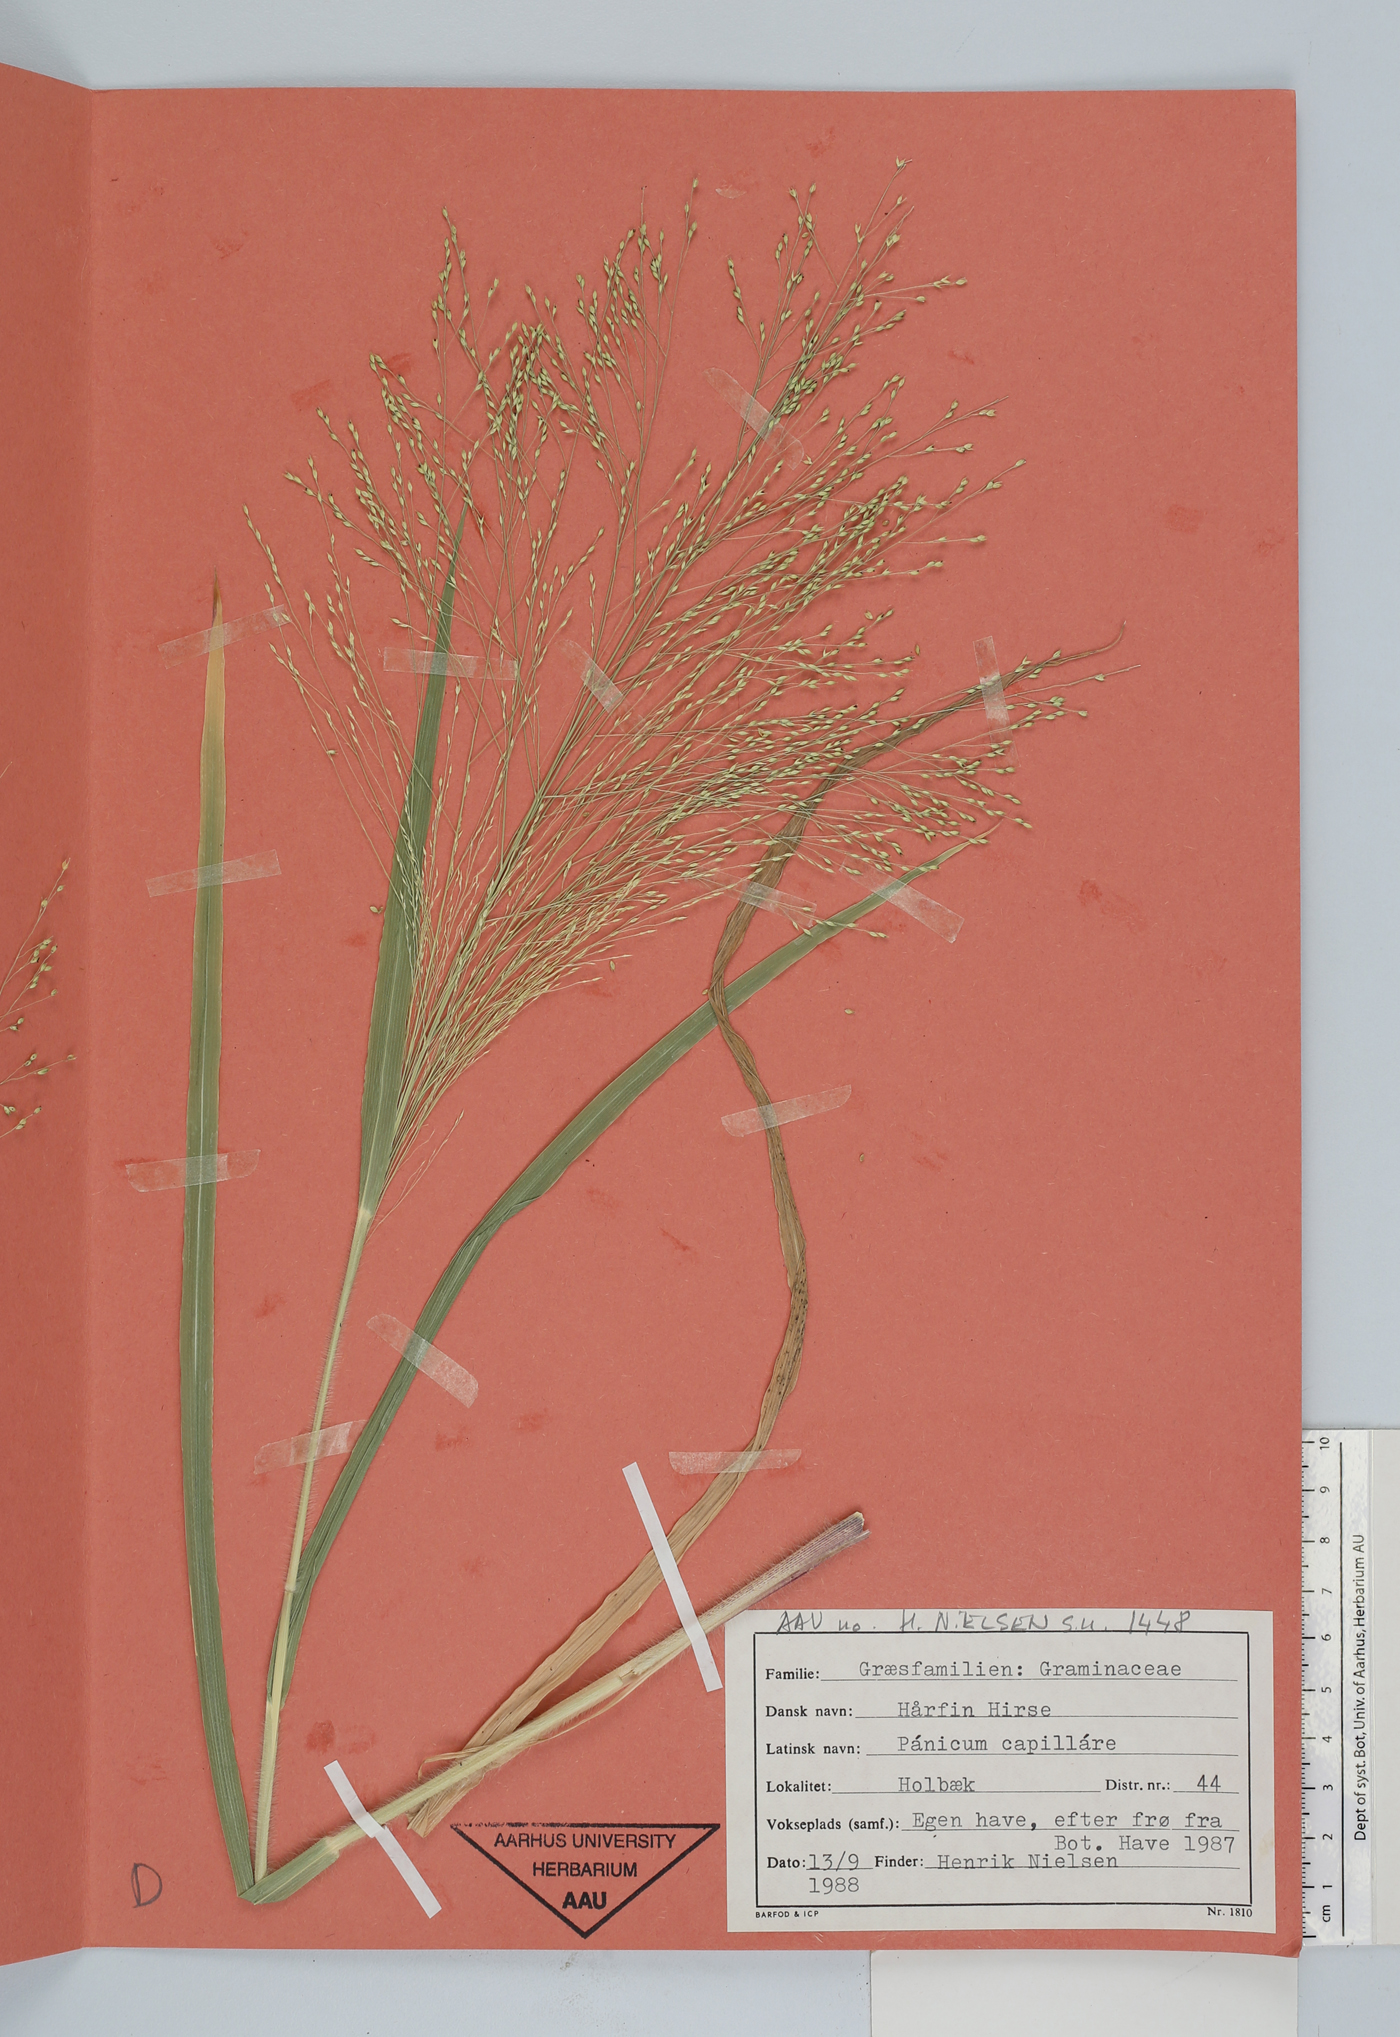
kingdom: Plantae
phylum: Tracheophyta
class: Liliopsida
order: Poales
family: Poaceae
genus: Panicum
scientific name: Panicum capillare
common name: Witch-grass
